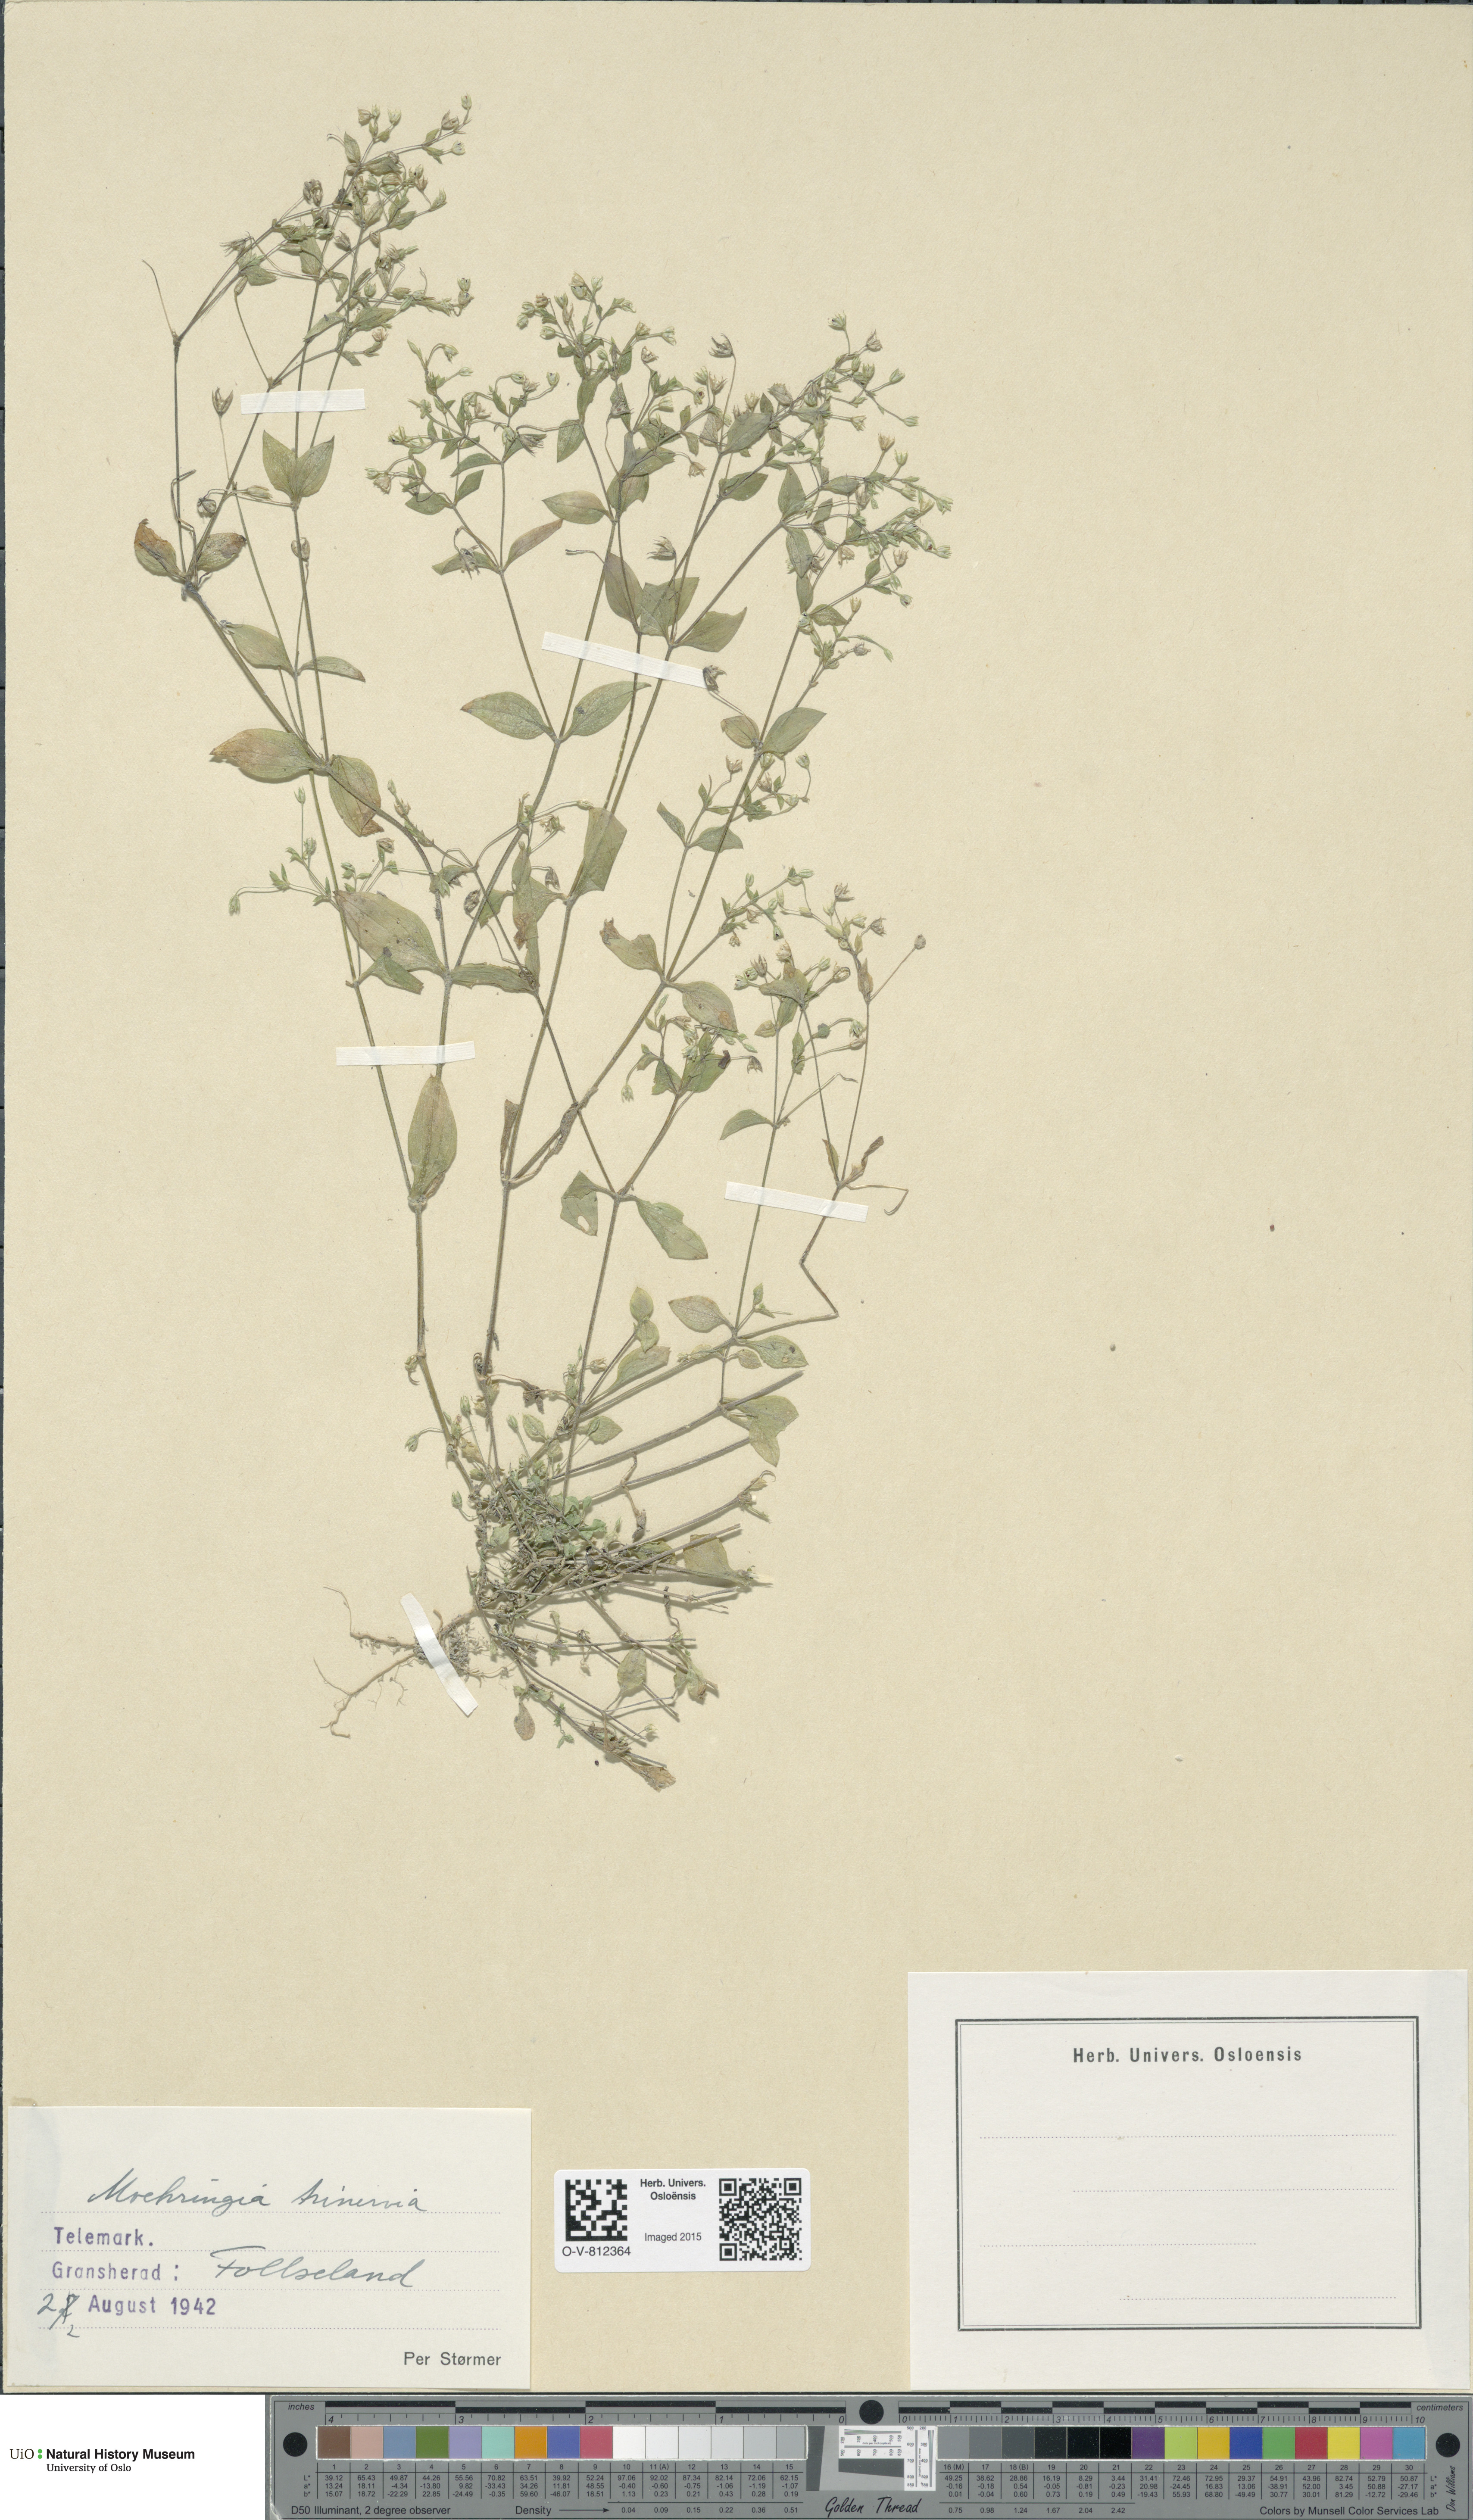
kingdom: Plantae
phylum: Tracheophyta
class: Magnoliopsida
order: Caryophyllales
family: Caryophyllaceae
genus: Moehringia
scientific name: Moehringia trinervia
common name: Three-nerved sandwort
